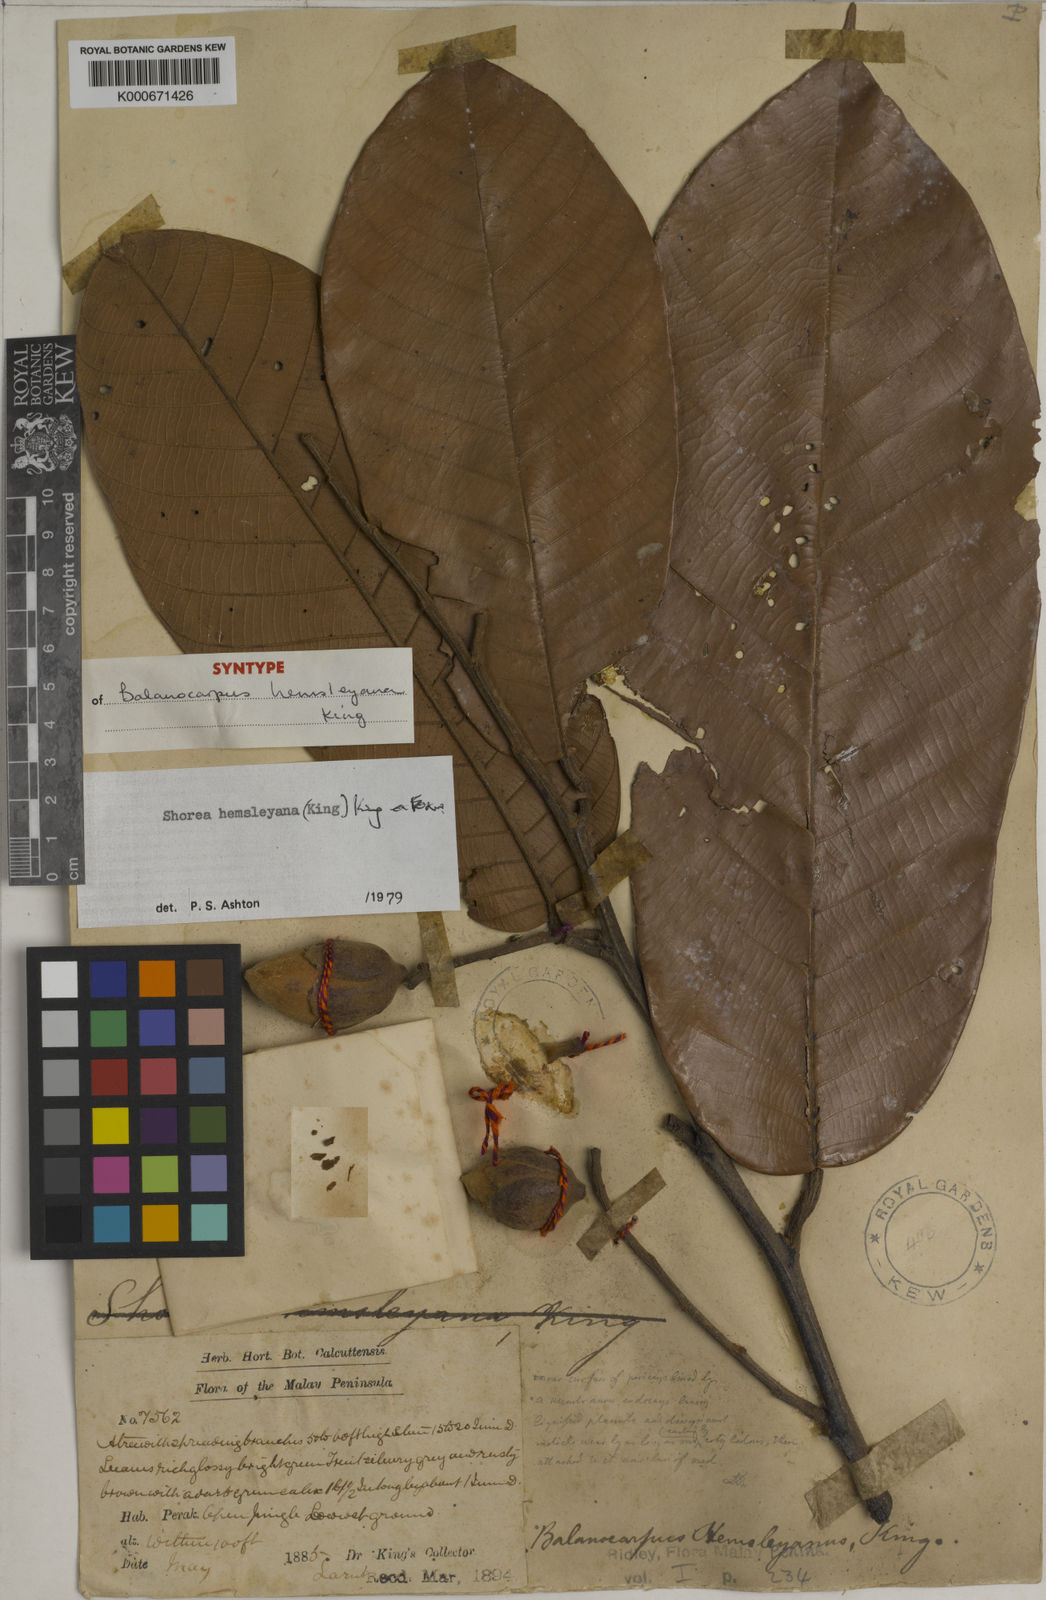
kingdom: Plantae
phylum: Tracheophyta
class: Magnoliopsida
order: Malvales
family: Dipterocarpaceae
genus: Shorea
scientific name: Shorea hemsleyana
